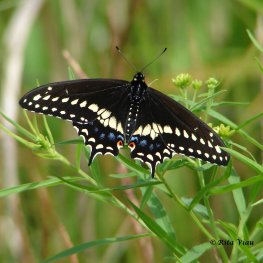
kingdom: Animalia
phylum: Arthropoda
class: Insecta
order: Lepidoptera
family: Papilionidae
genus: Papilio
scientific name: Papilio polyxenes
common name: Black Swallowtail
